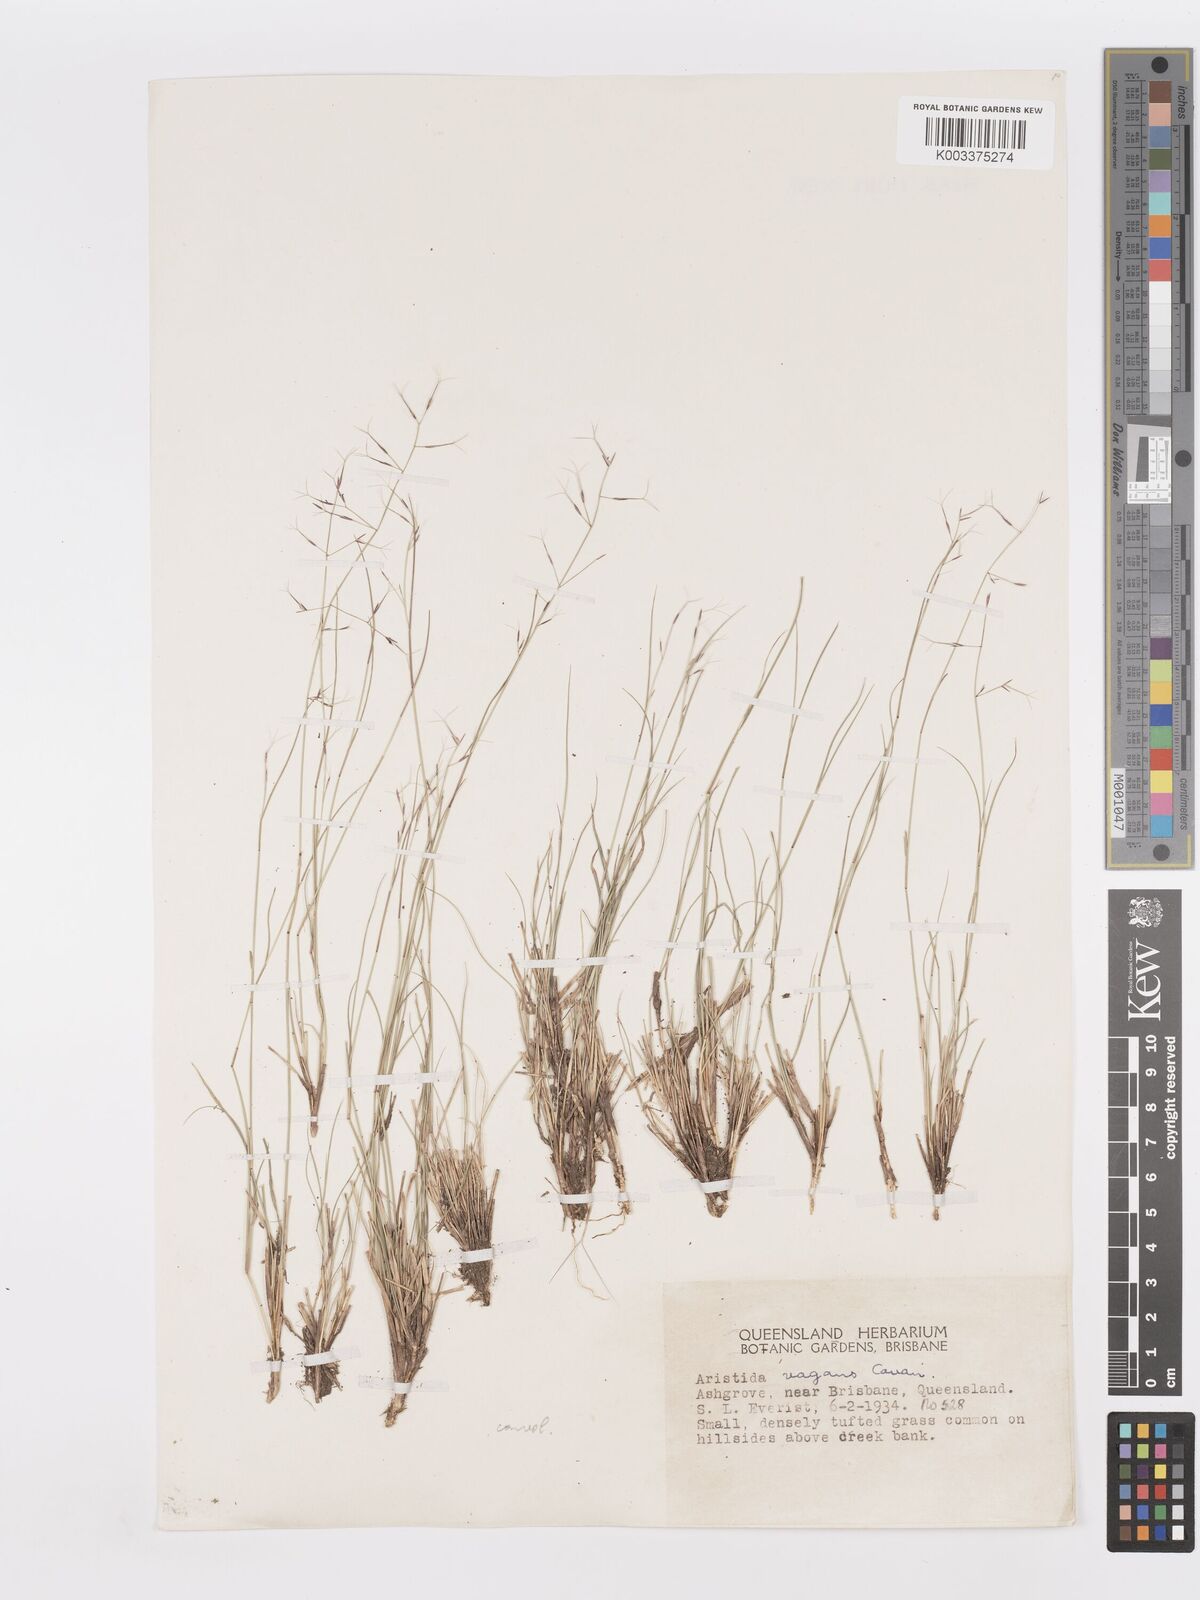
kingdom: Plantae
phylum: Tracheophyta
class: Liliopsida
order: Poales
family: Poaceae
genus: Aristida
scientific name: Aristida vagans
